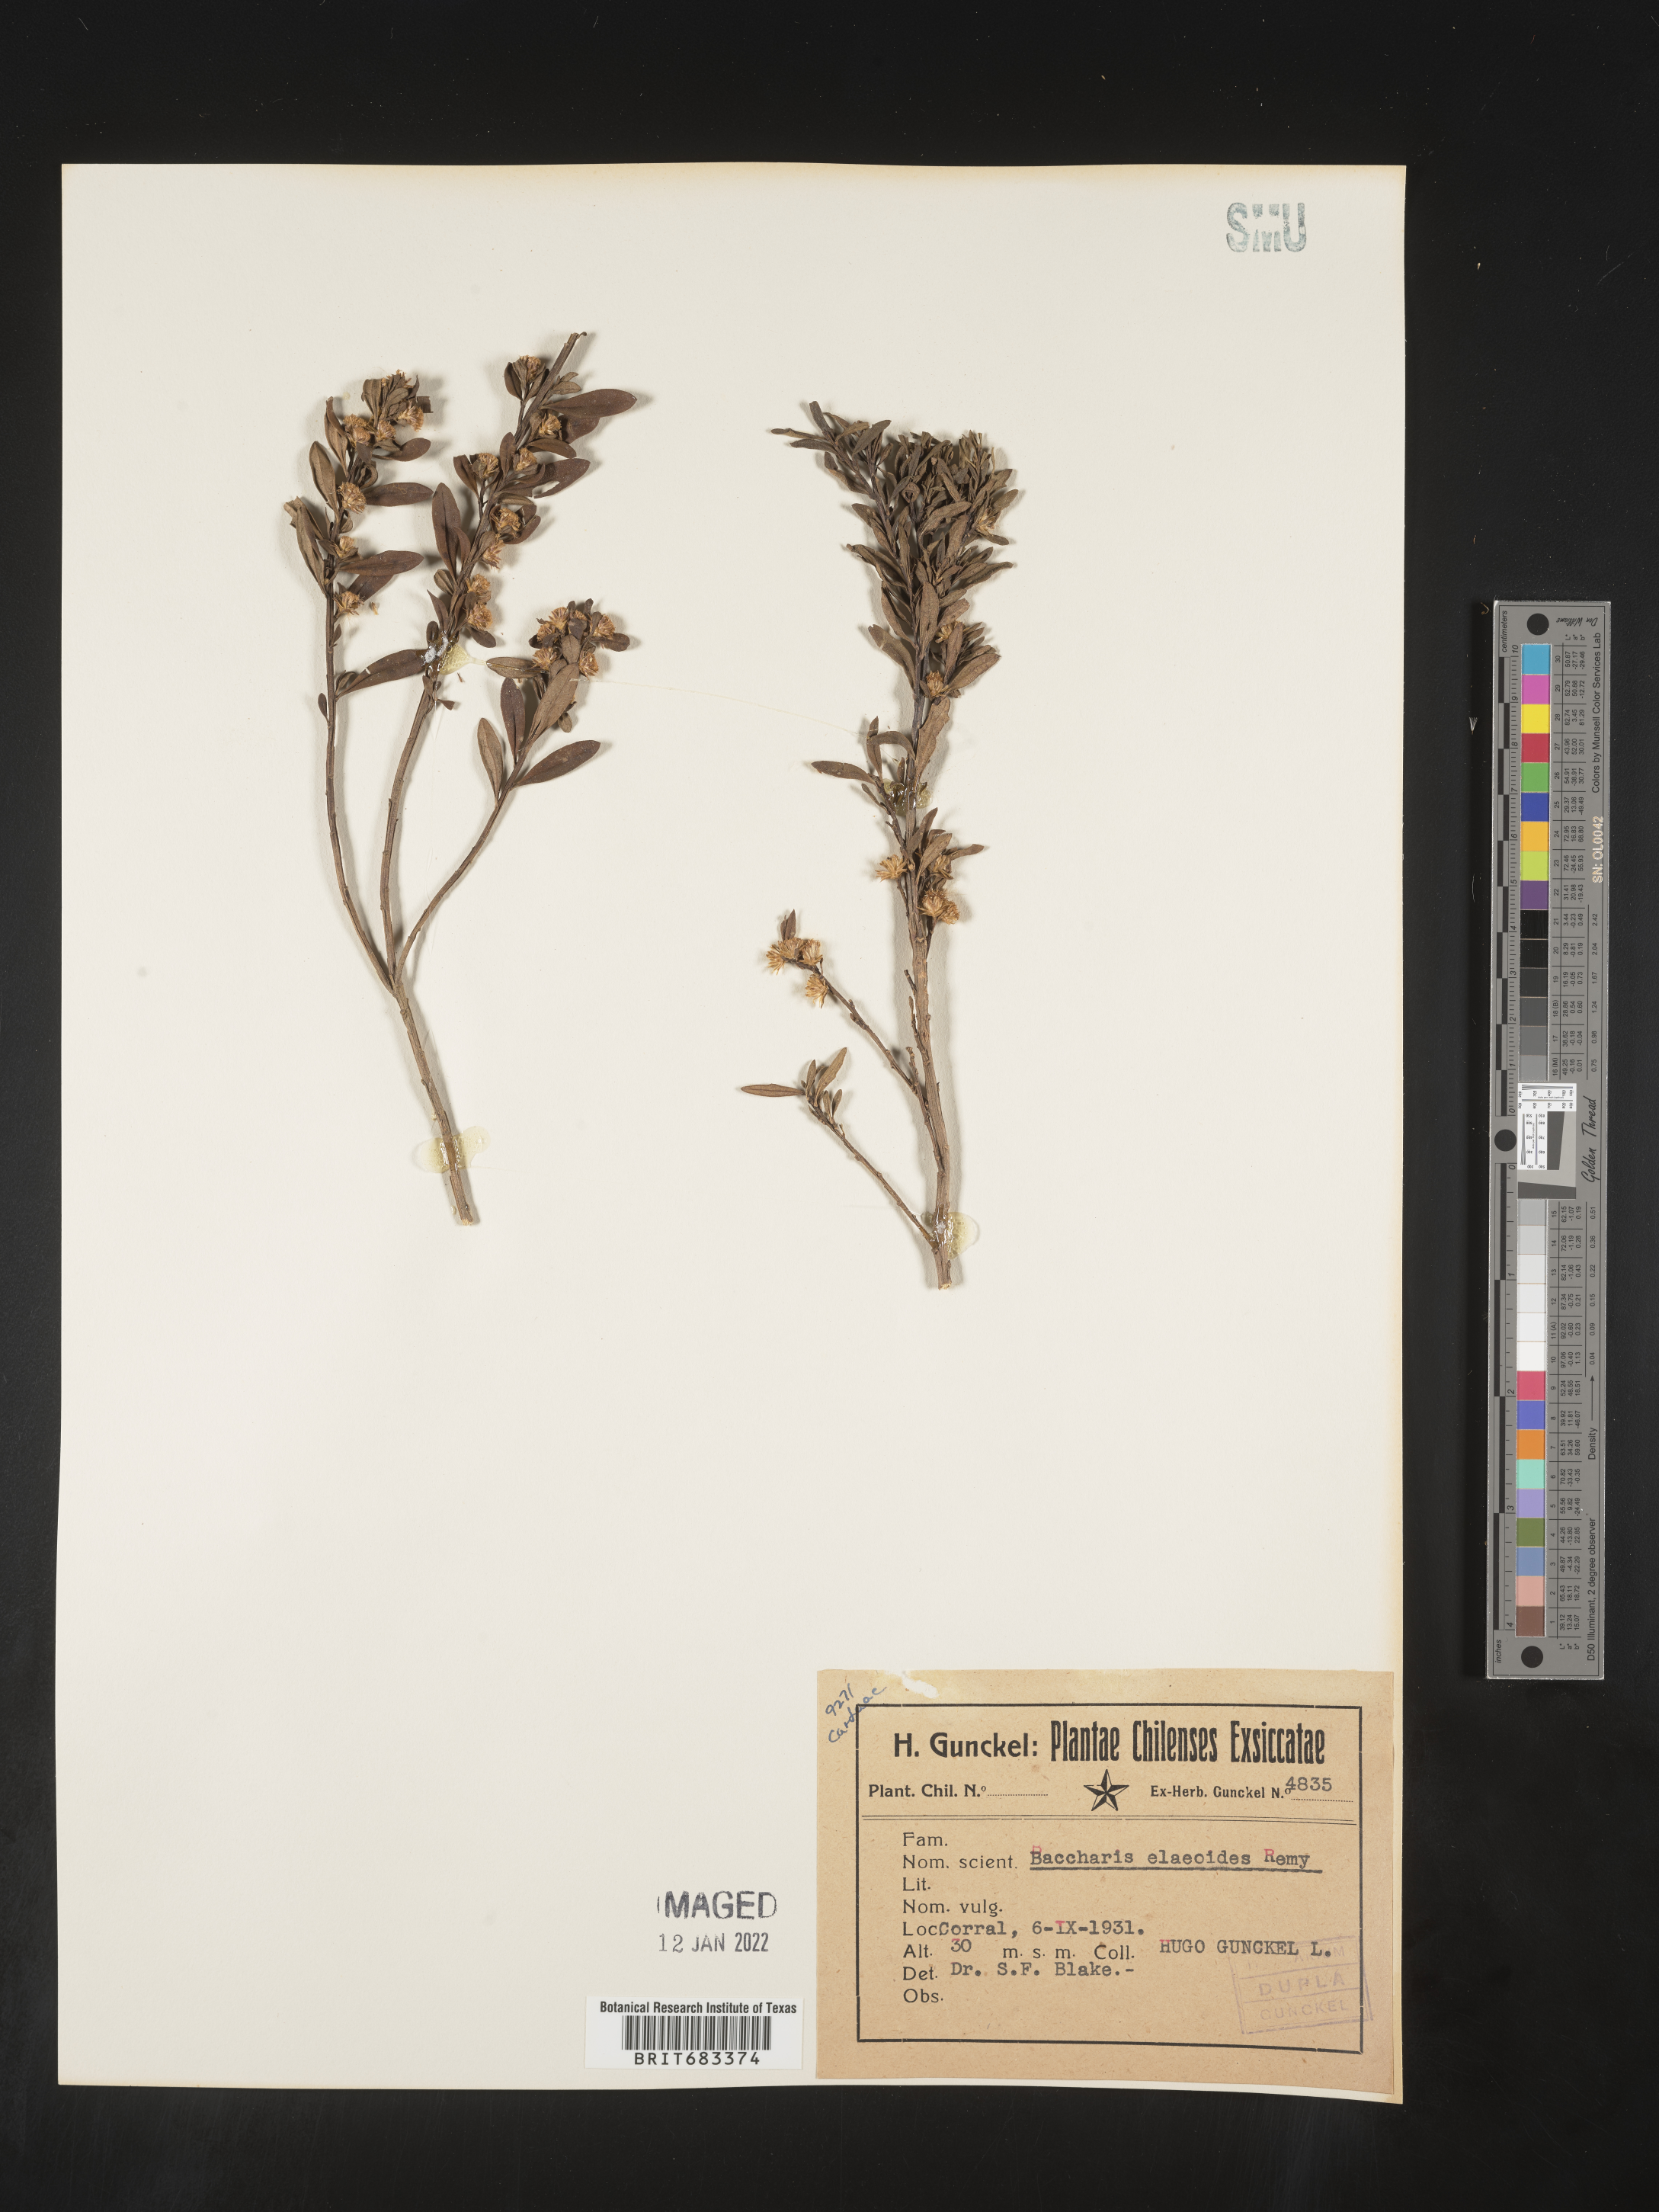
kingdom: Plantae
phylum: Tracheophyta
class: Magnoliopsida
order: Asterales
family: Asteraceae
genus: Baccharis
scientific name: Baccharis
